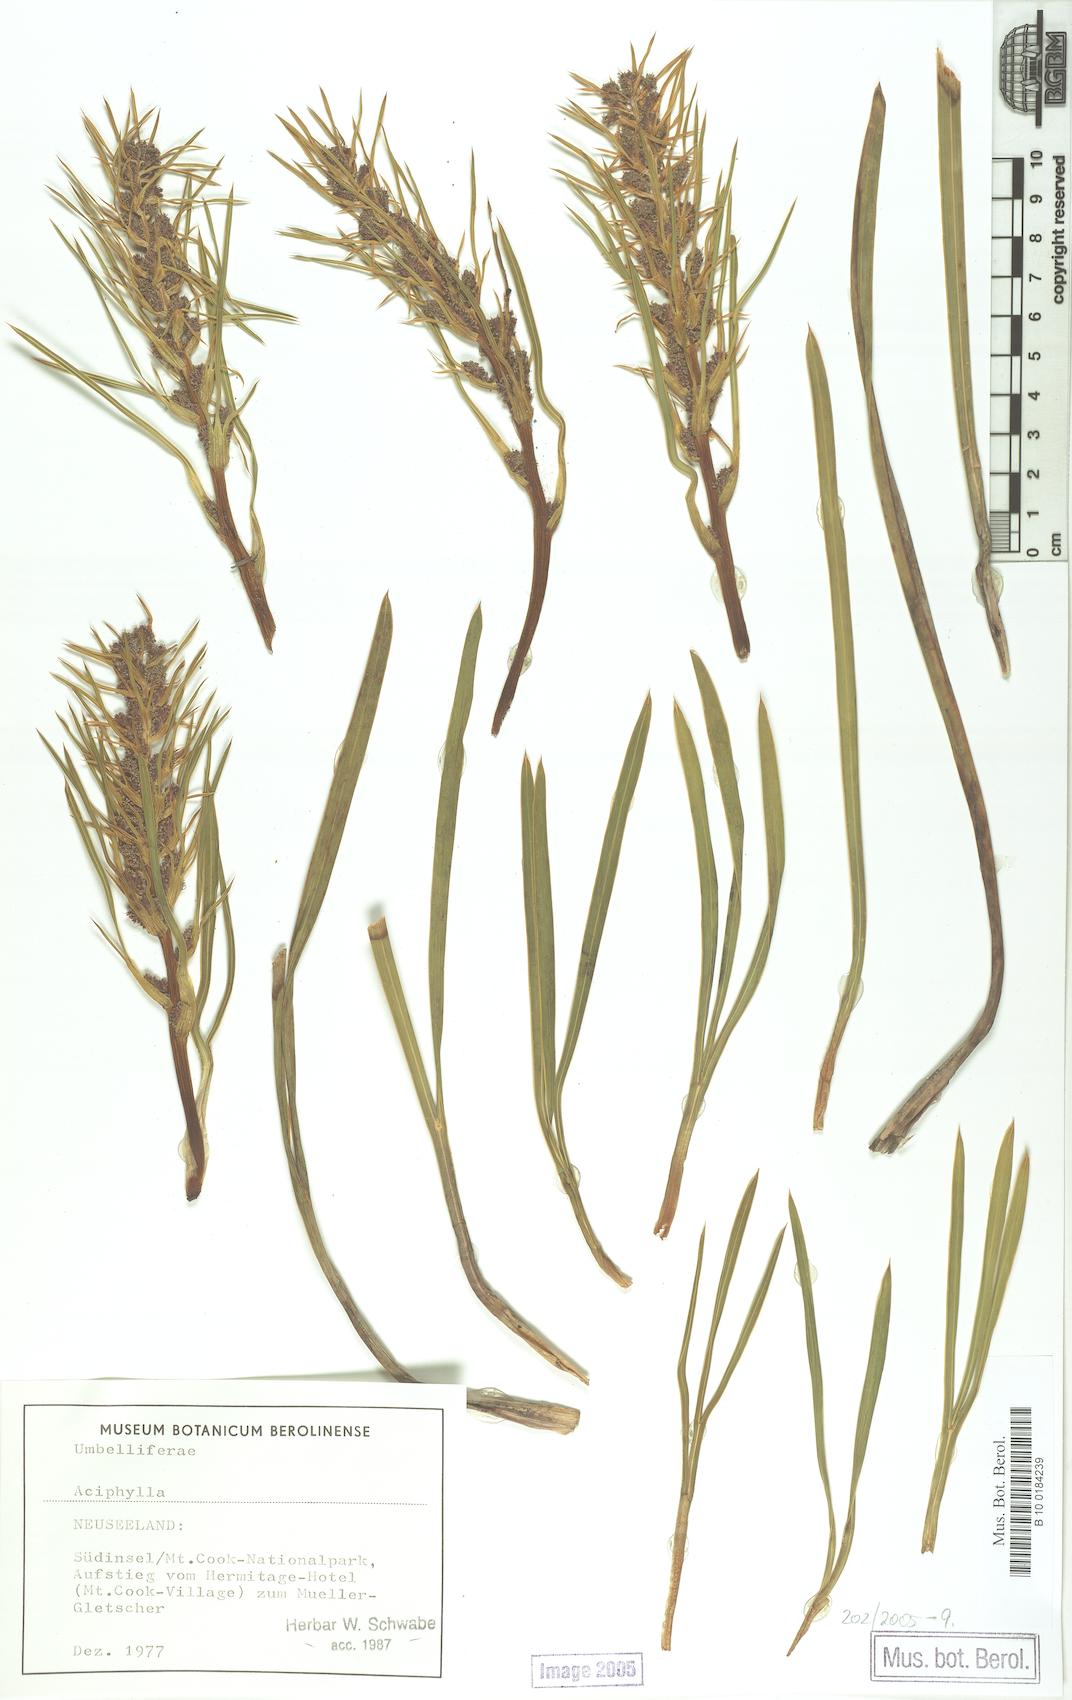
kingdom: Plantae
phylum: Tracheophyta
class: Magnoliopsida
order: Apiales
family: Apiaceae
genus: Aciphylla
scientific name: Aciphylla
